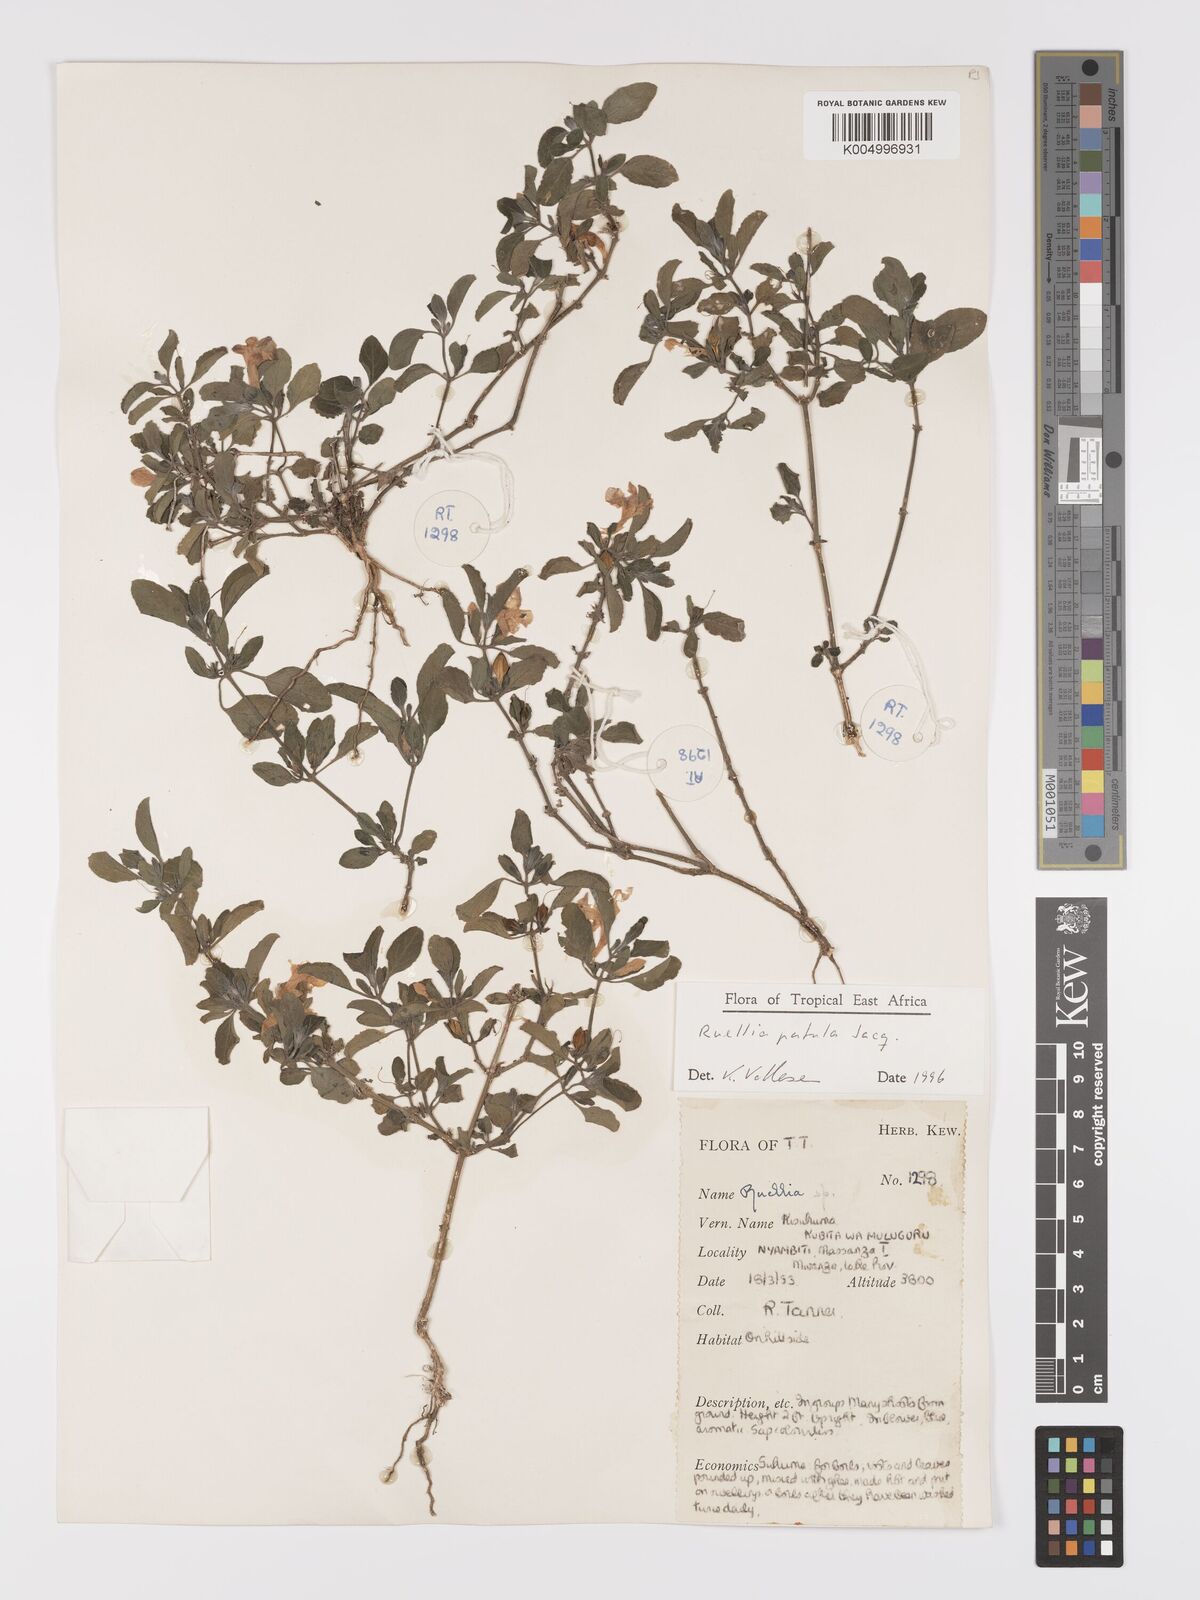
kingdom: Plantae
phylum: Tracheophyta
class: Magnoliopsida
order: Lamiales
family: Acanthaceae
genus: Ruellia
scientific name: Ruellia patula
